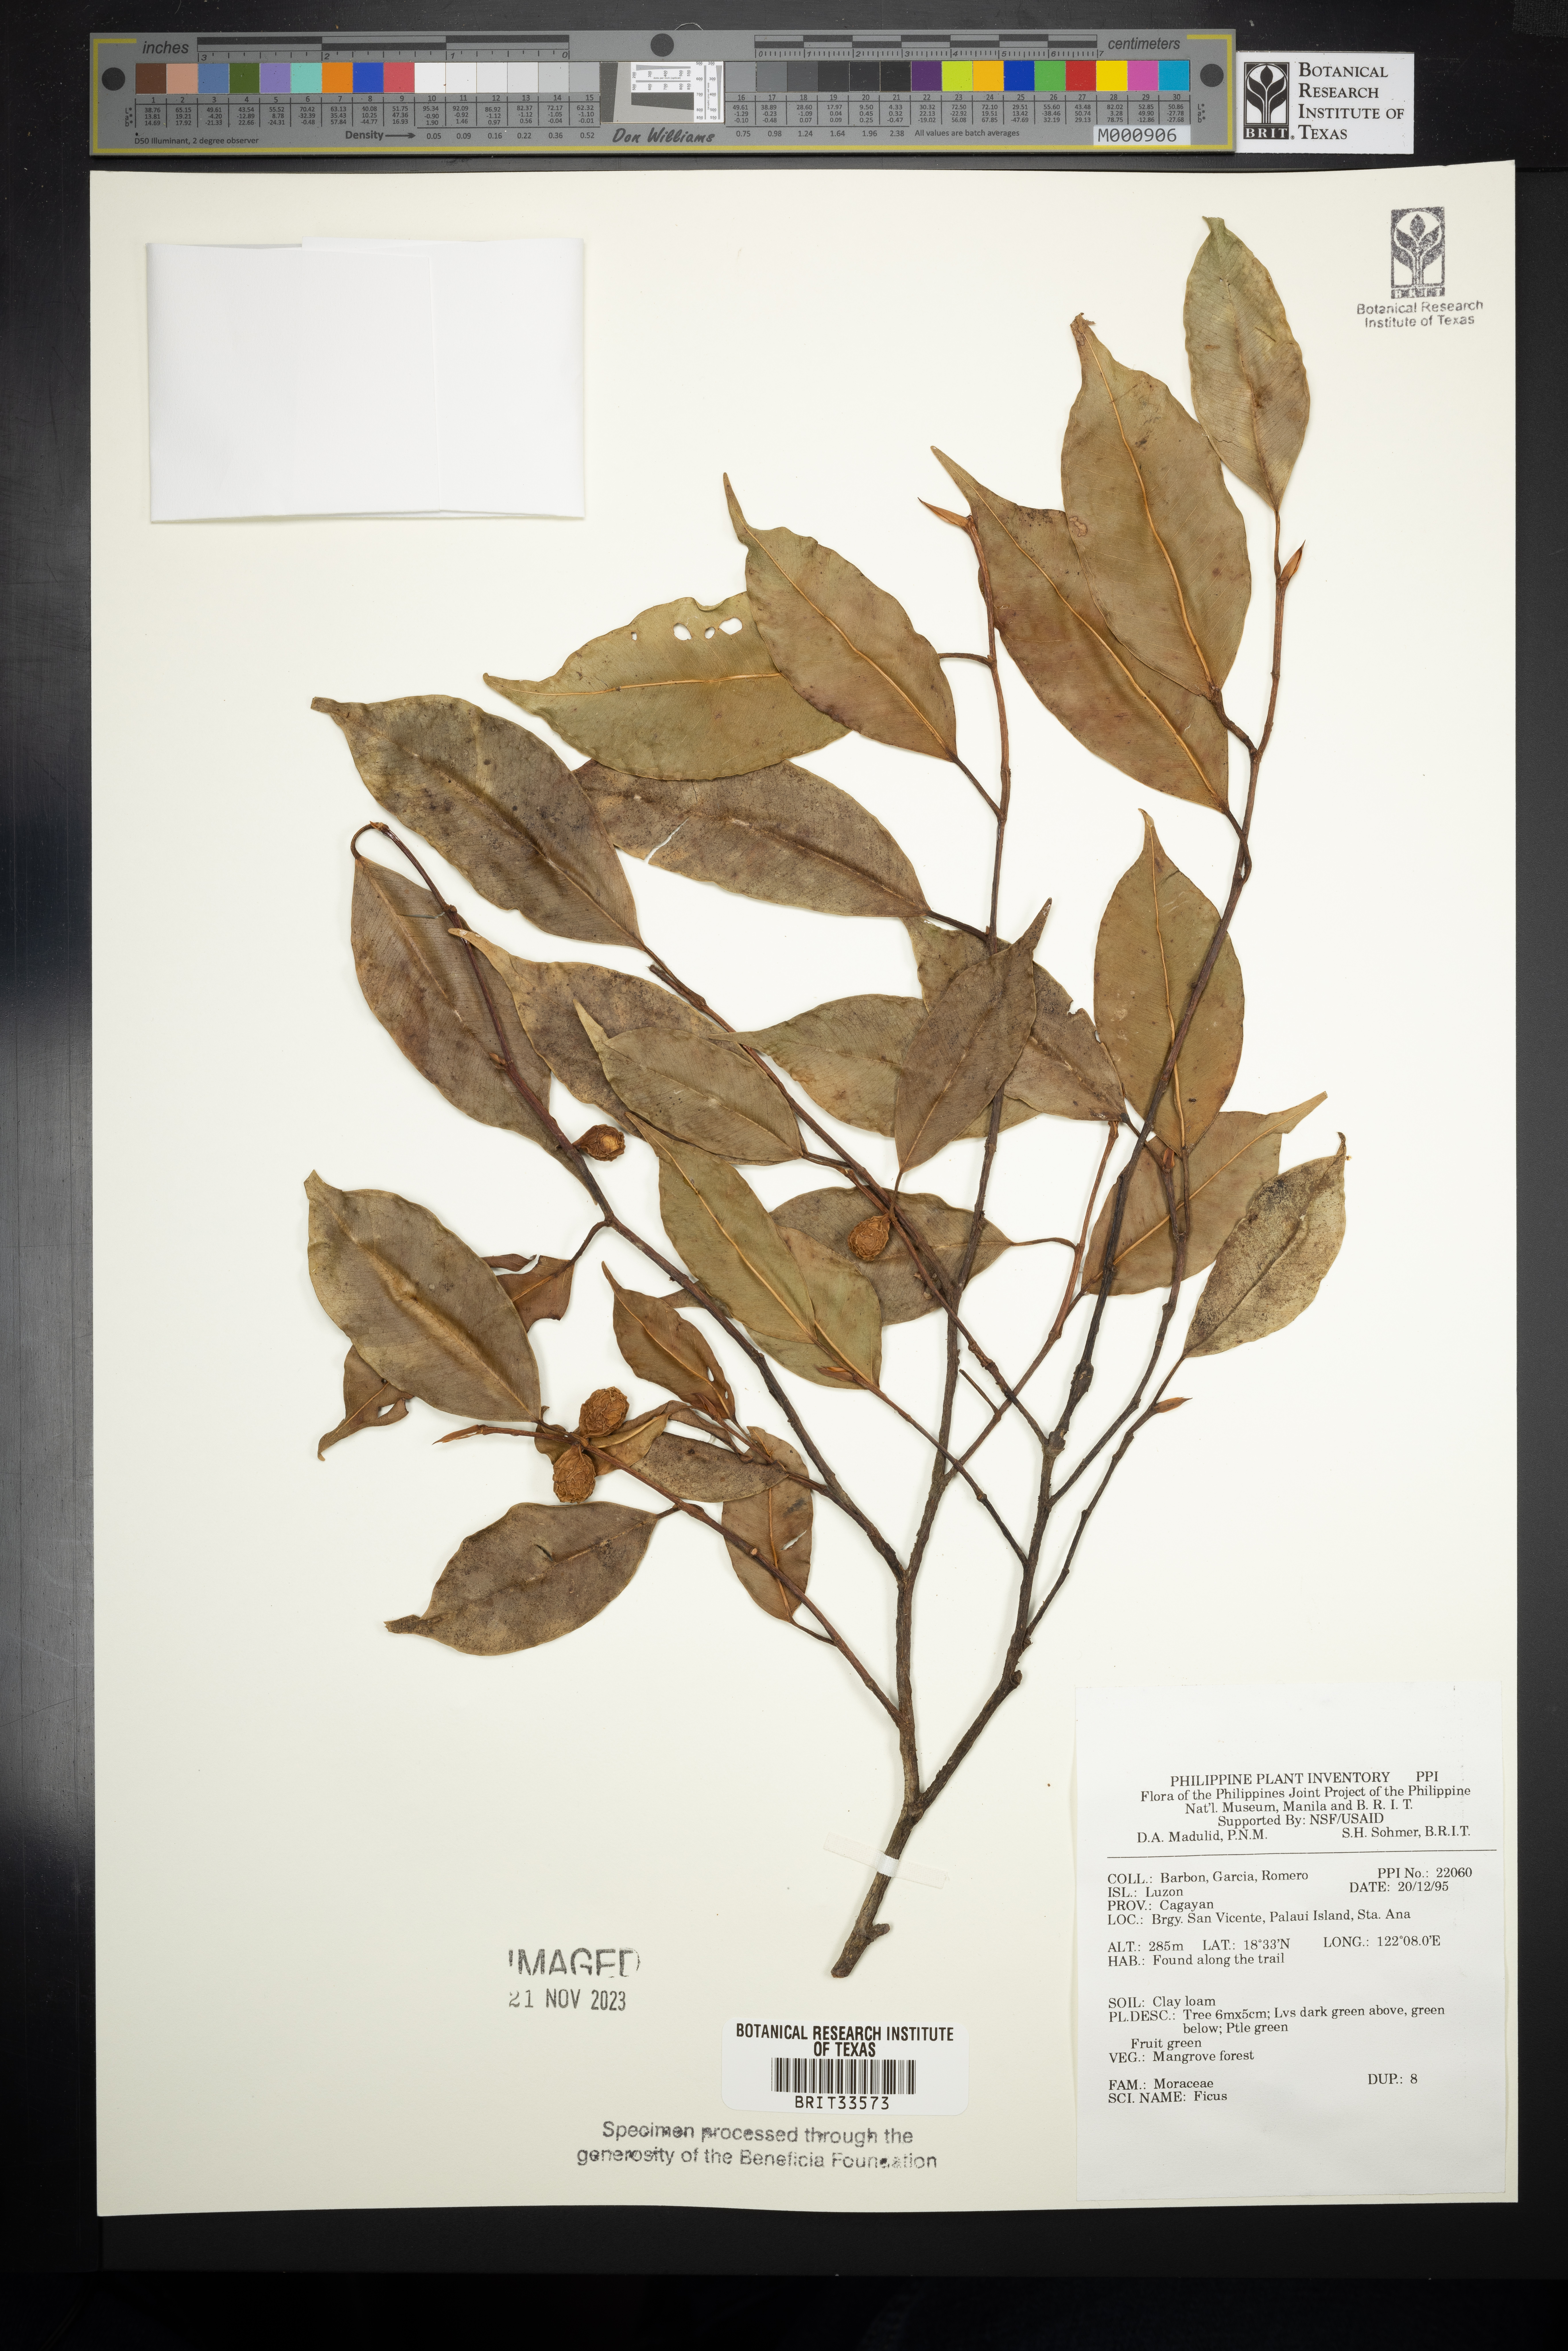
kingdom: Plantae
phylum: Tracheophyta
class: Magnoliopsida
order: Rosales
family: Moraceae
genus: Ficus
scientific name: Ficus
